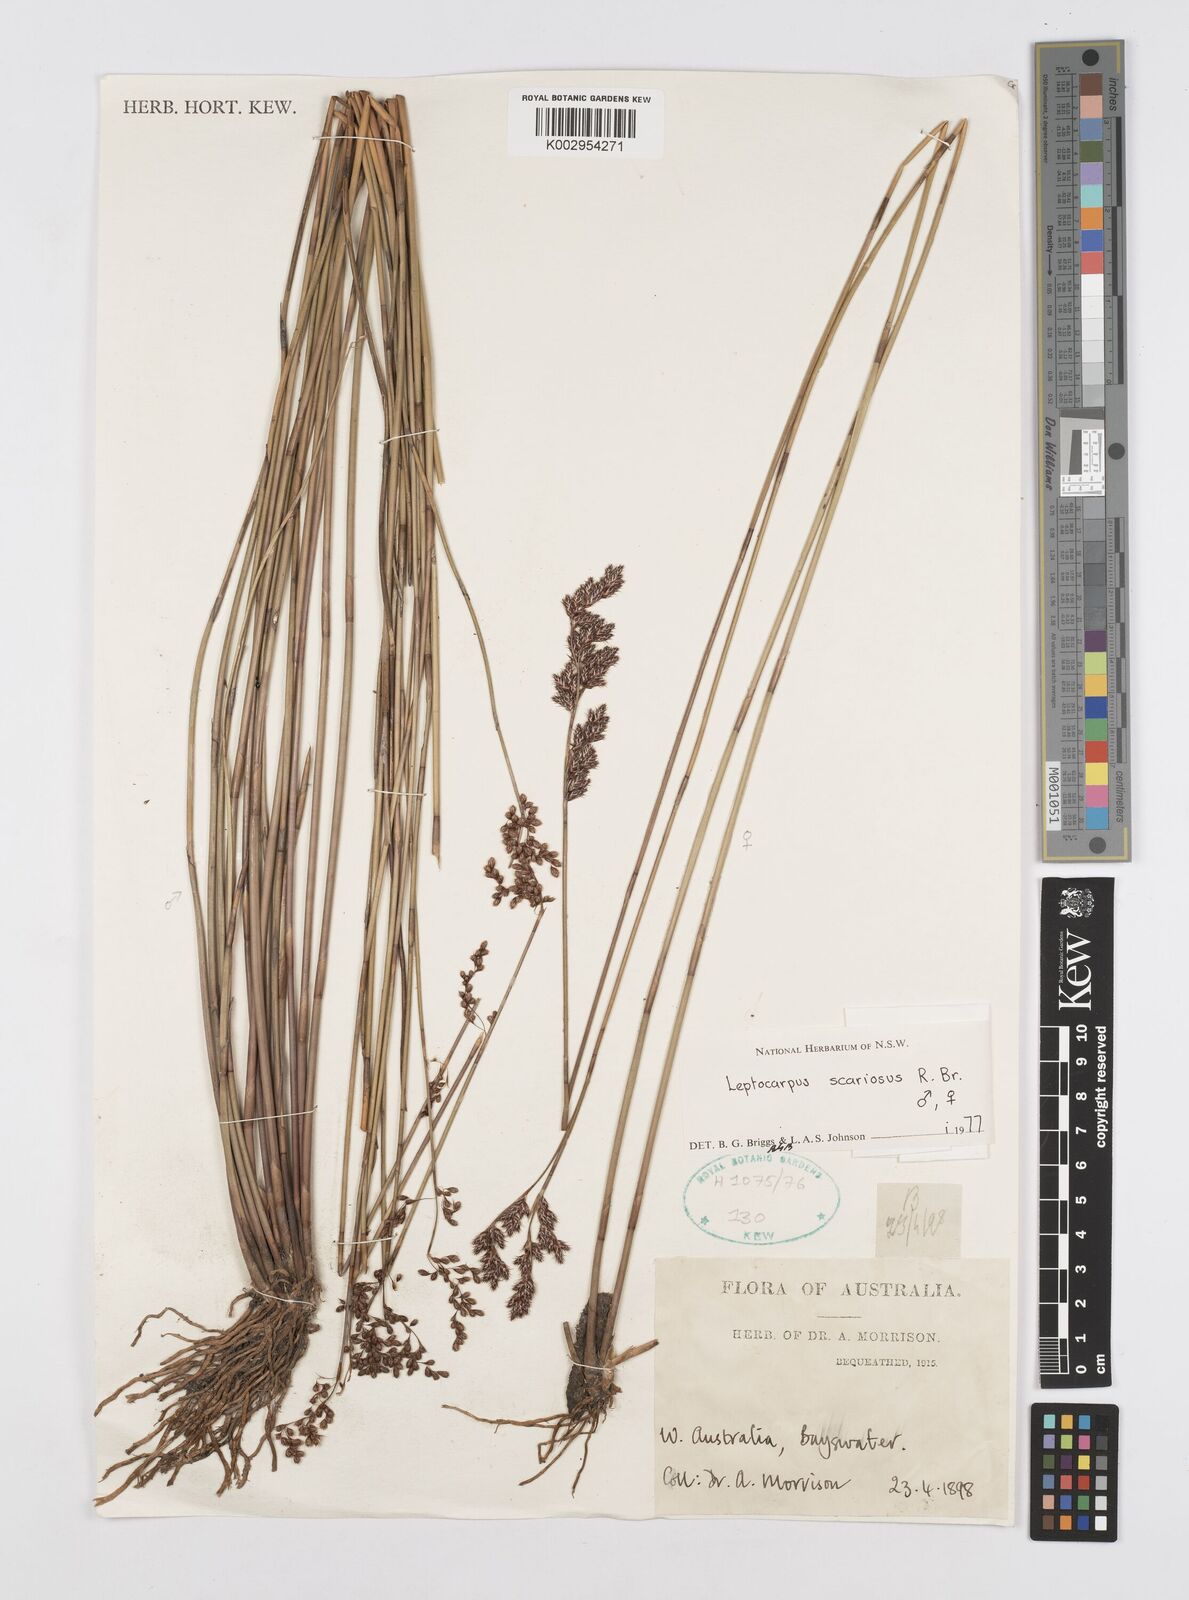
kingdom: Plantae
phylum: Tracheophyta
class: Liliopsida
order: Poales
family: Restionaceae
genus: Leptocarpus
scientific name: Leptocarpus scariosus
